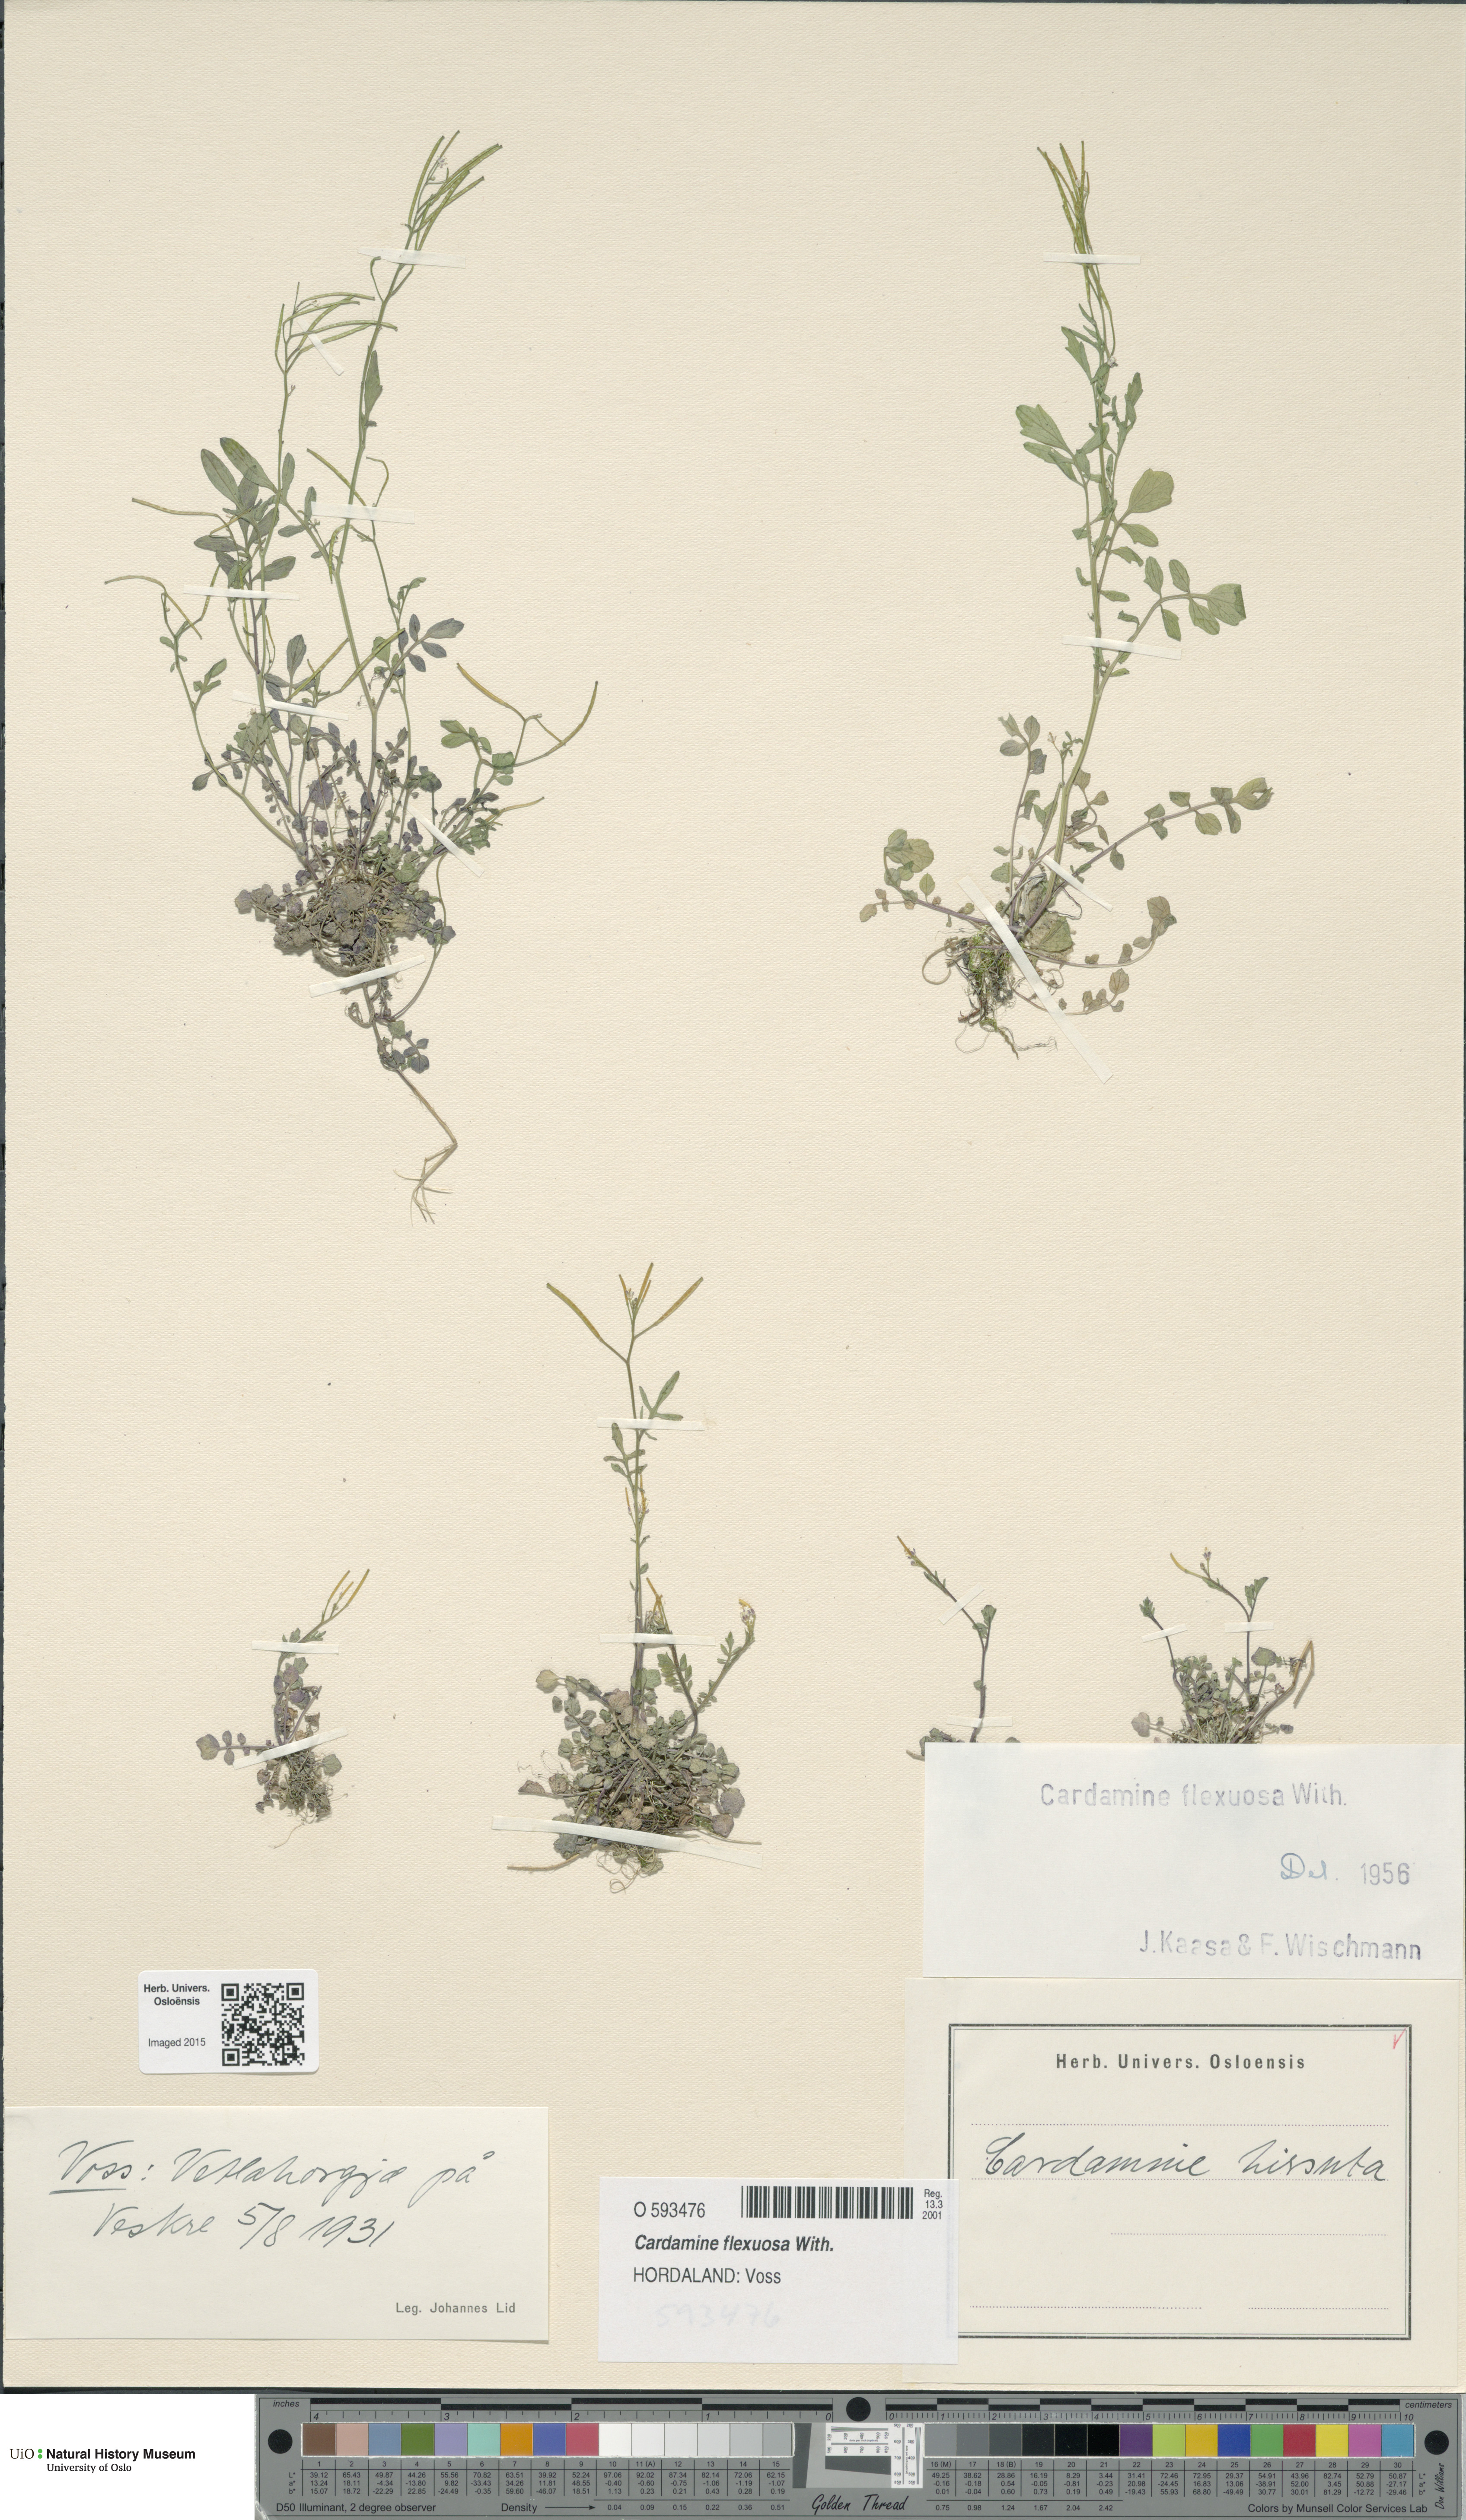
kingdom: Plantae
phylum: Tracheophyta
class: Magnoliopsida
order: Brassicales
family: Brassicaceae
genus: Cardamine
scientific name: Cardamine flexuosa
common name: Woodland bittercress
